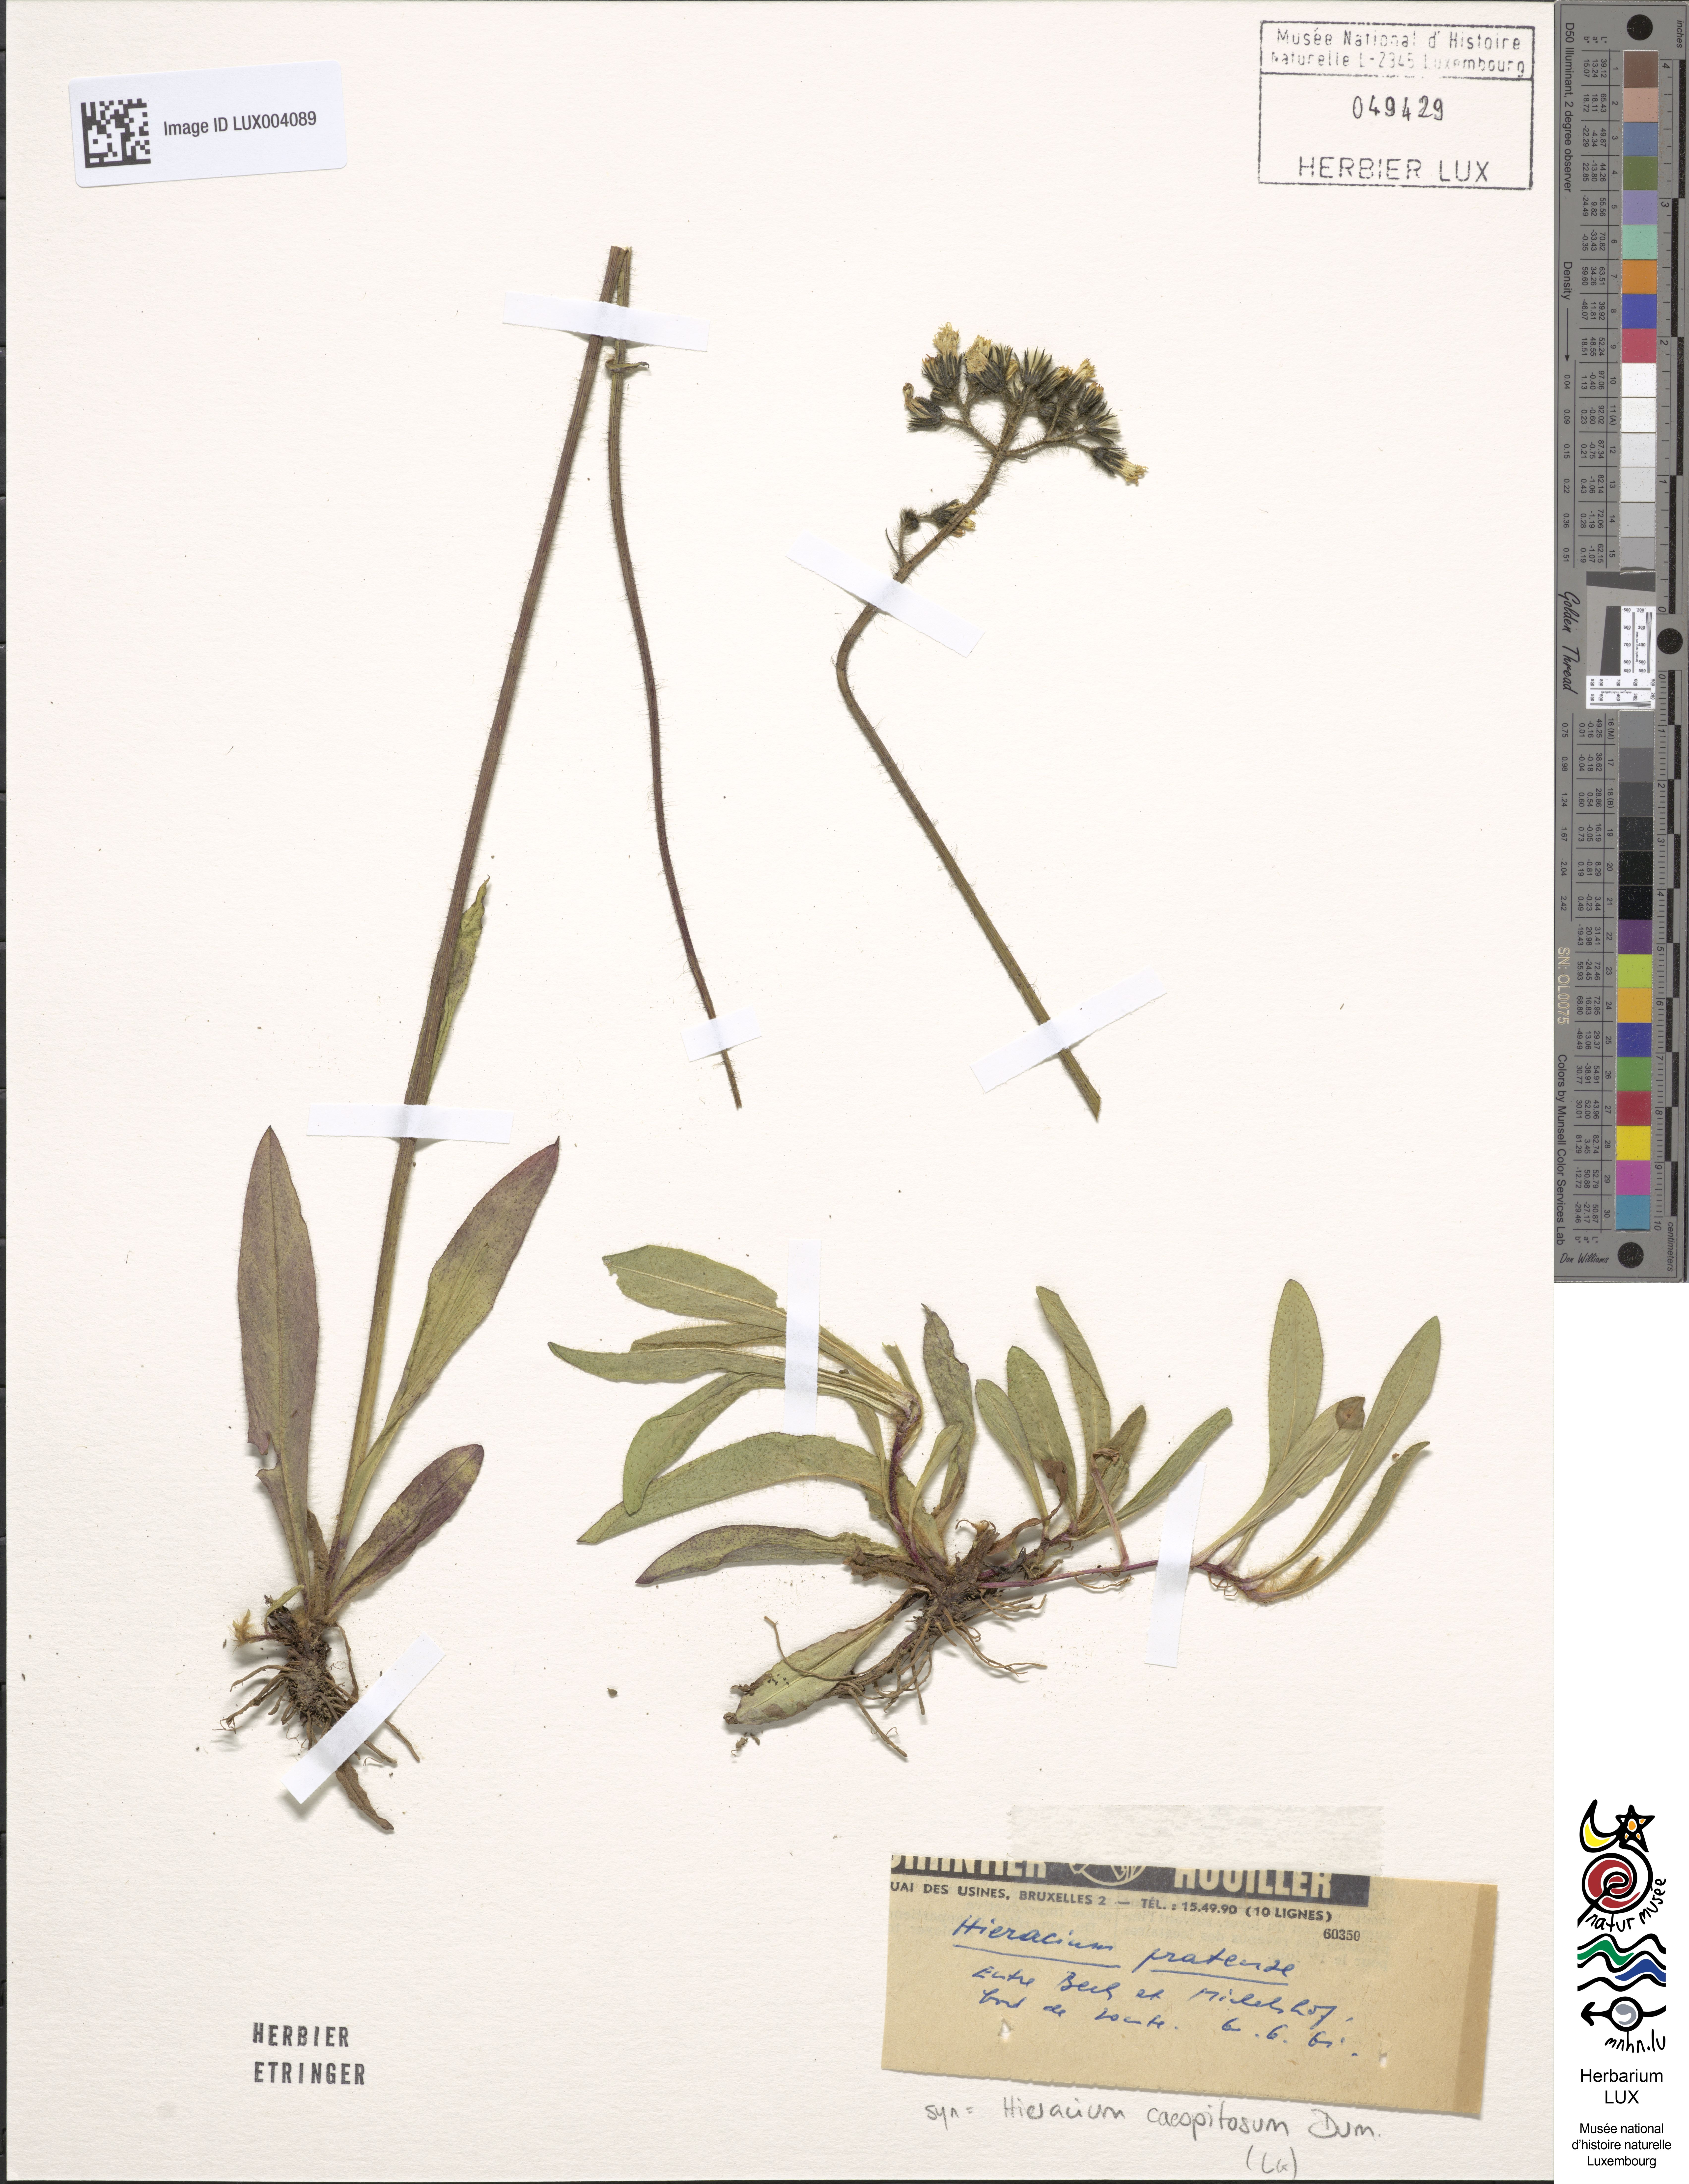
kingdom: Plantae
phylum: Tracheophyta
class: Magnoliopsida
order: Asterales
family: Asteraceae
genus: Pilosella
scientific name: Pilosella caespitosa
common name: Yellow fox-and-cubs
